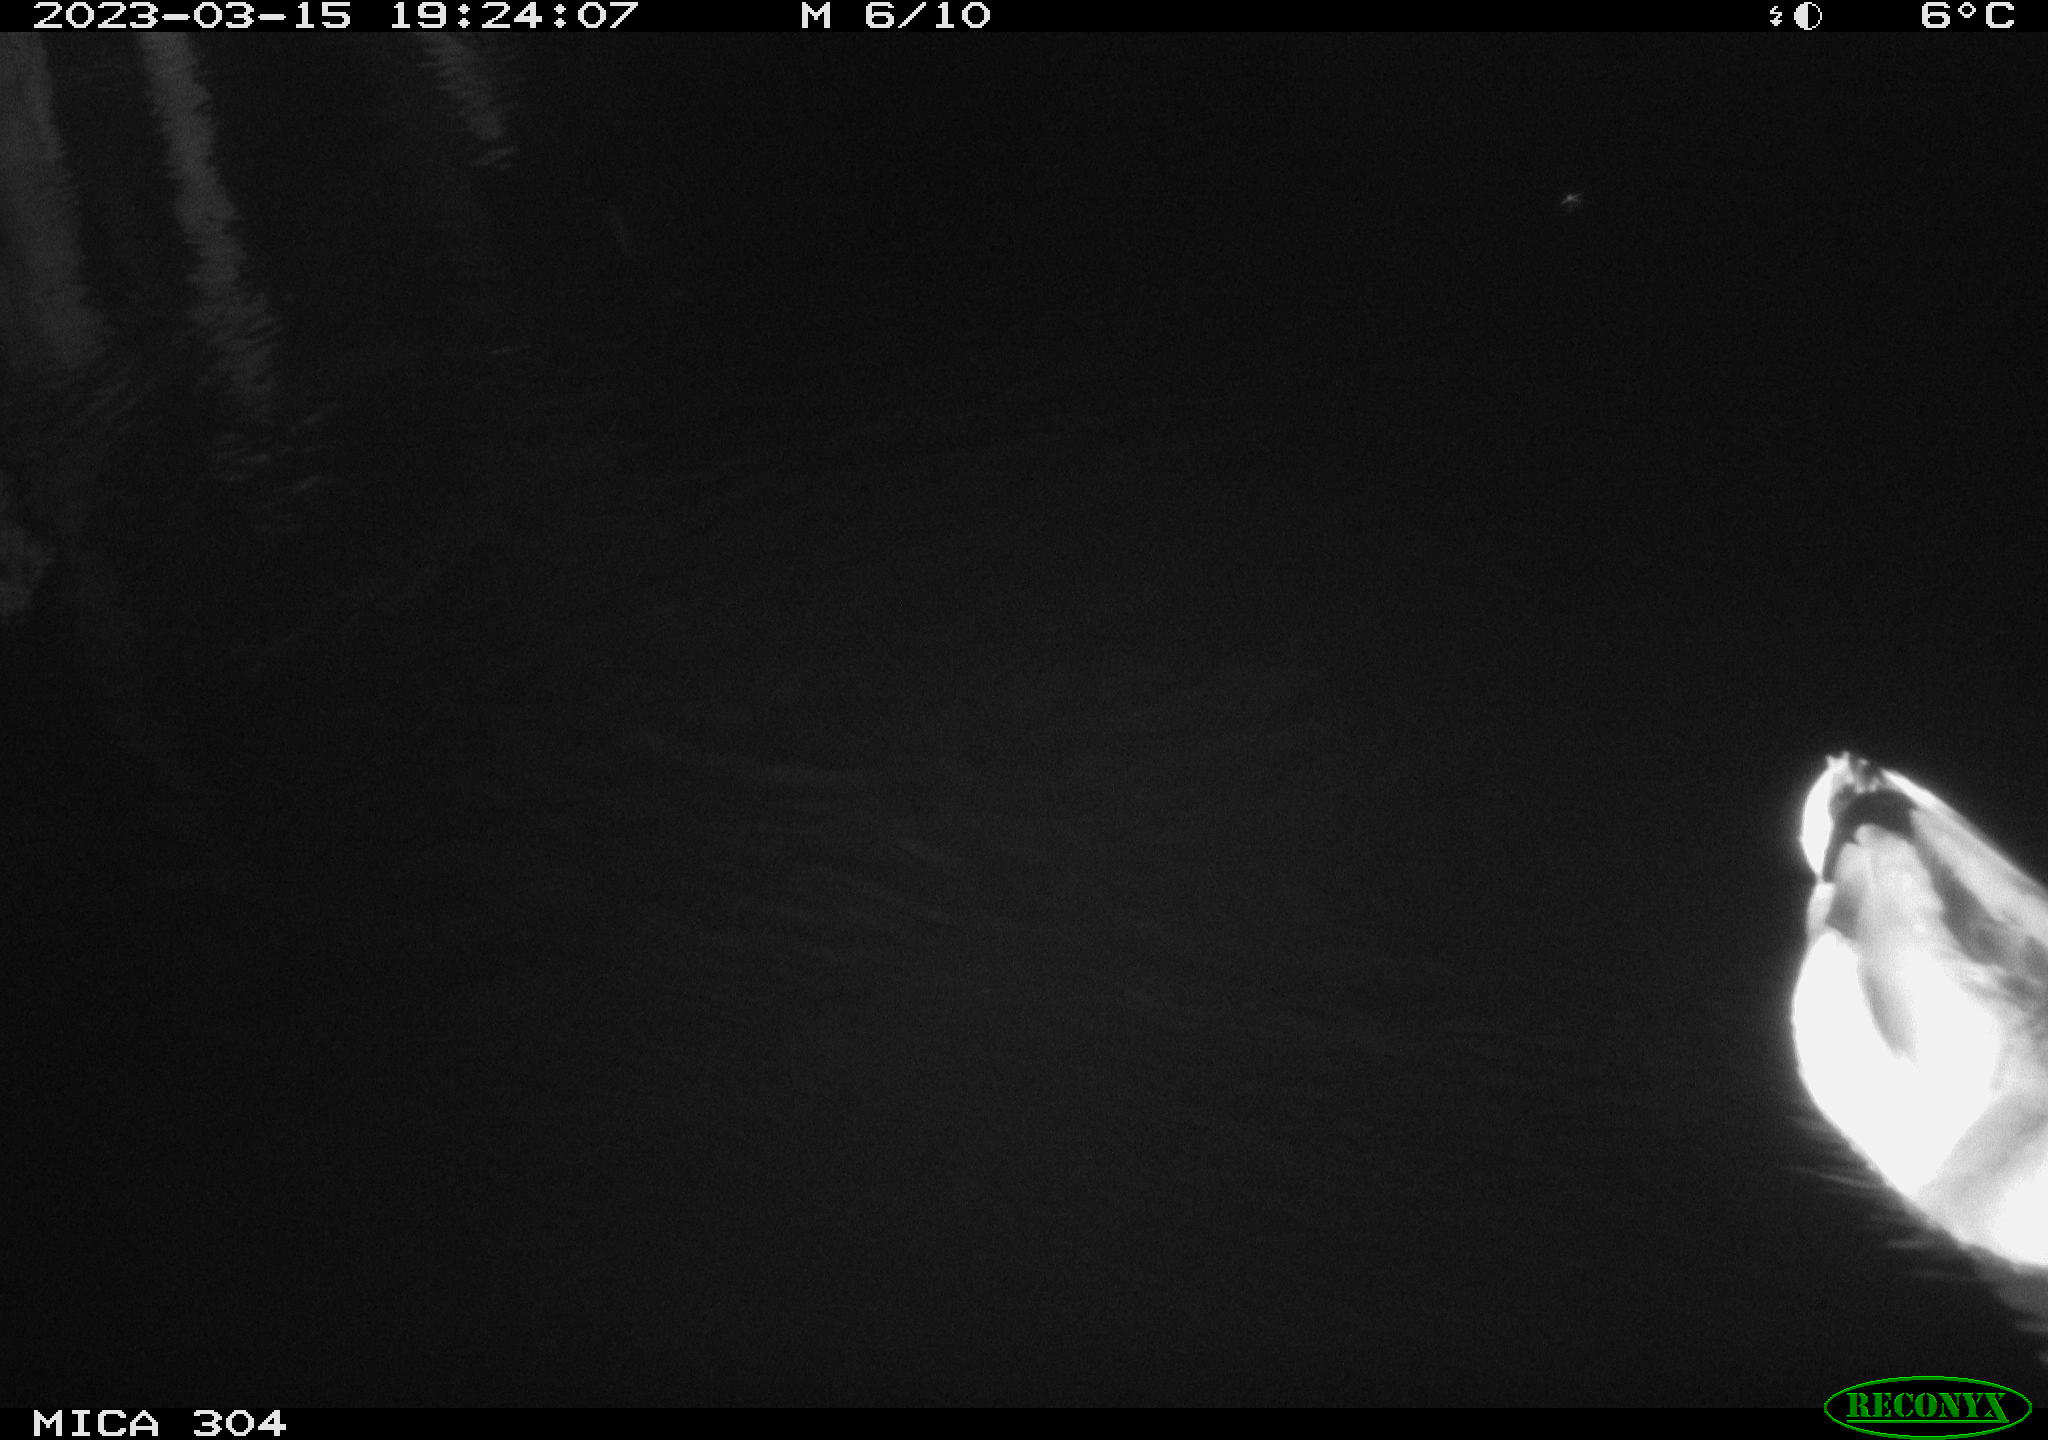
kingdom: Animalia
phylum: Chordata
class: Aves
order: Anseriformes
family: Anatidae
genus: Anas
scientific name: Anas
